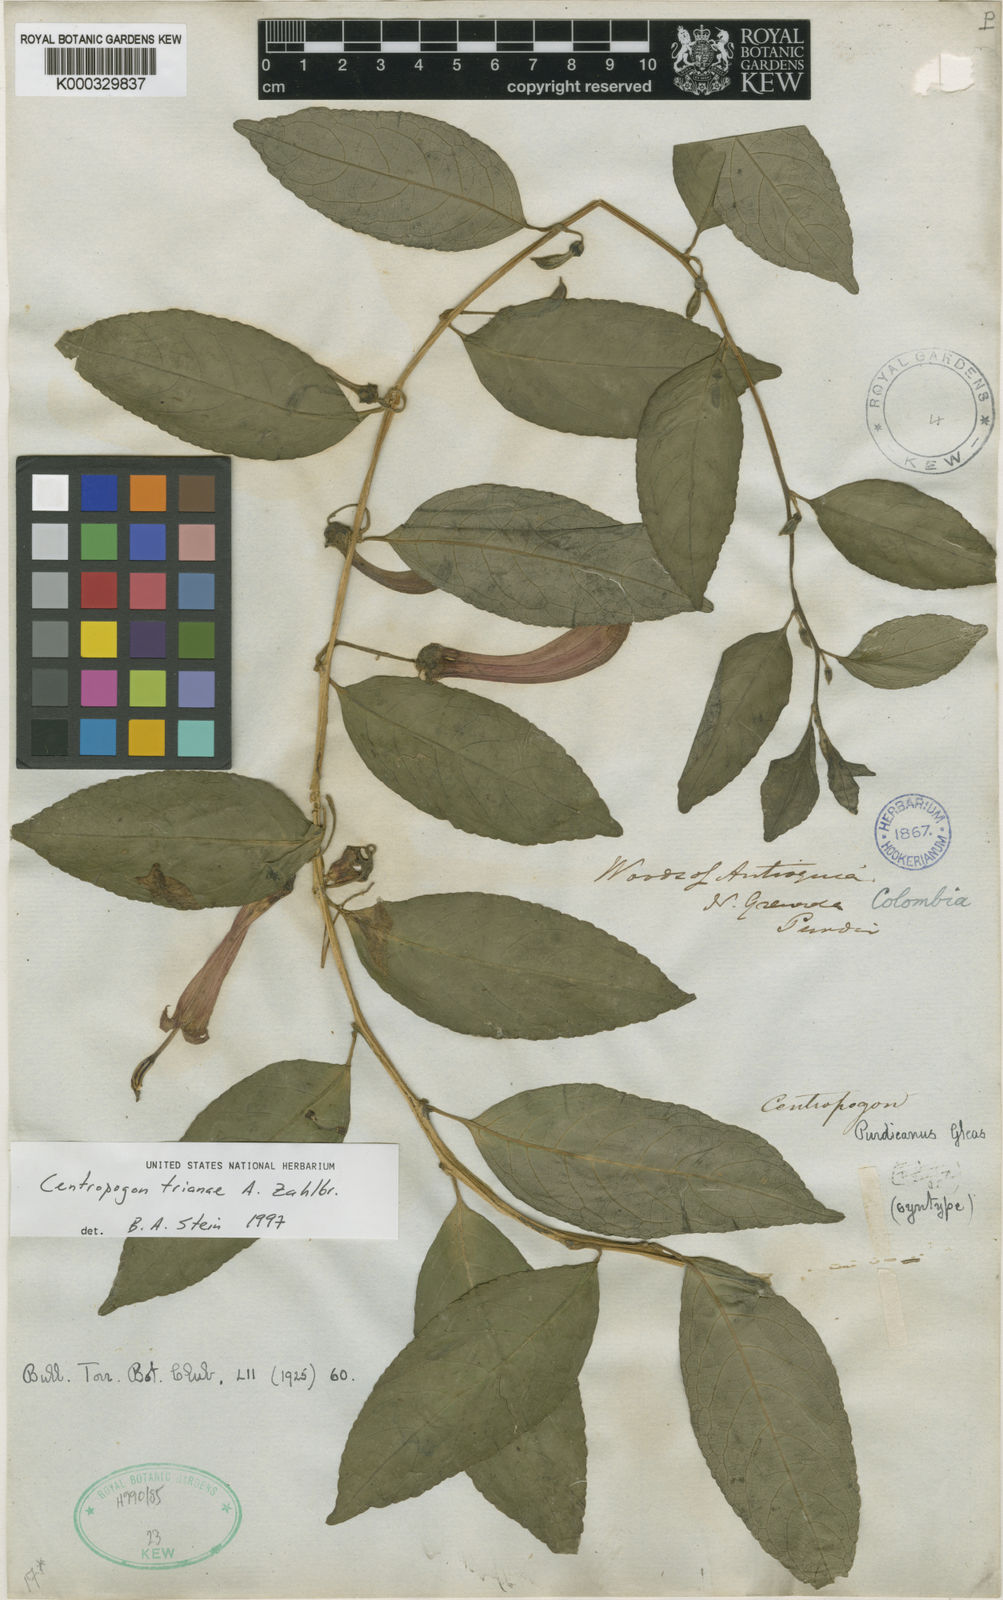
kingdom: Plantae
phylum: Tracheophyta
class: Magnoliopsida
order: Asterales
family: Campanulaceae
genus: Centropogon
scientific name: Centropogon trianae
